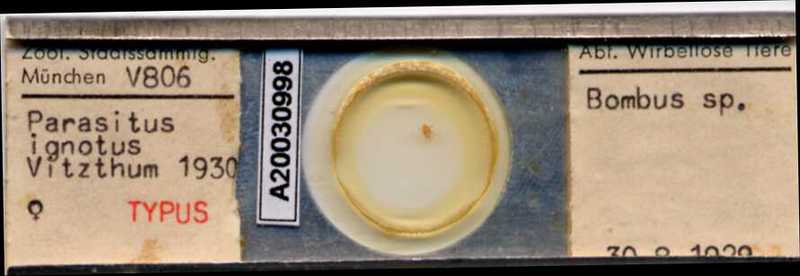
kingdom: Animalia
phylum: Arthropoda
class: Arachnida
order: Mesostigmata
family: Parasitidae
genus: Parasitellus
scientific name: Parasitellus ignotus
